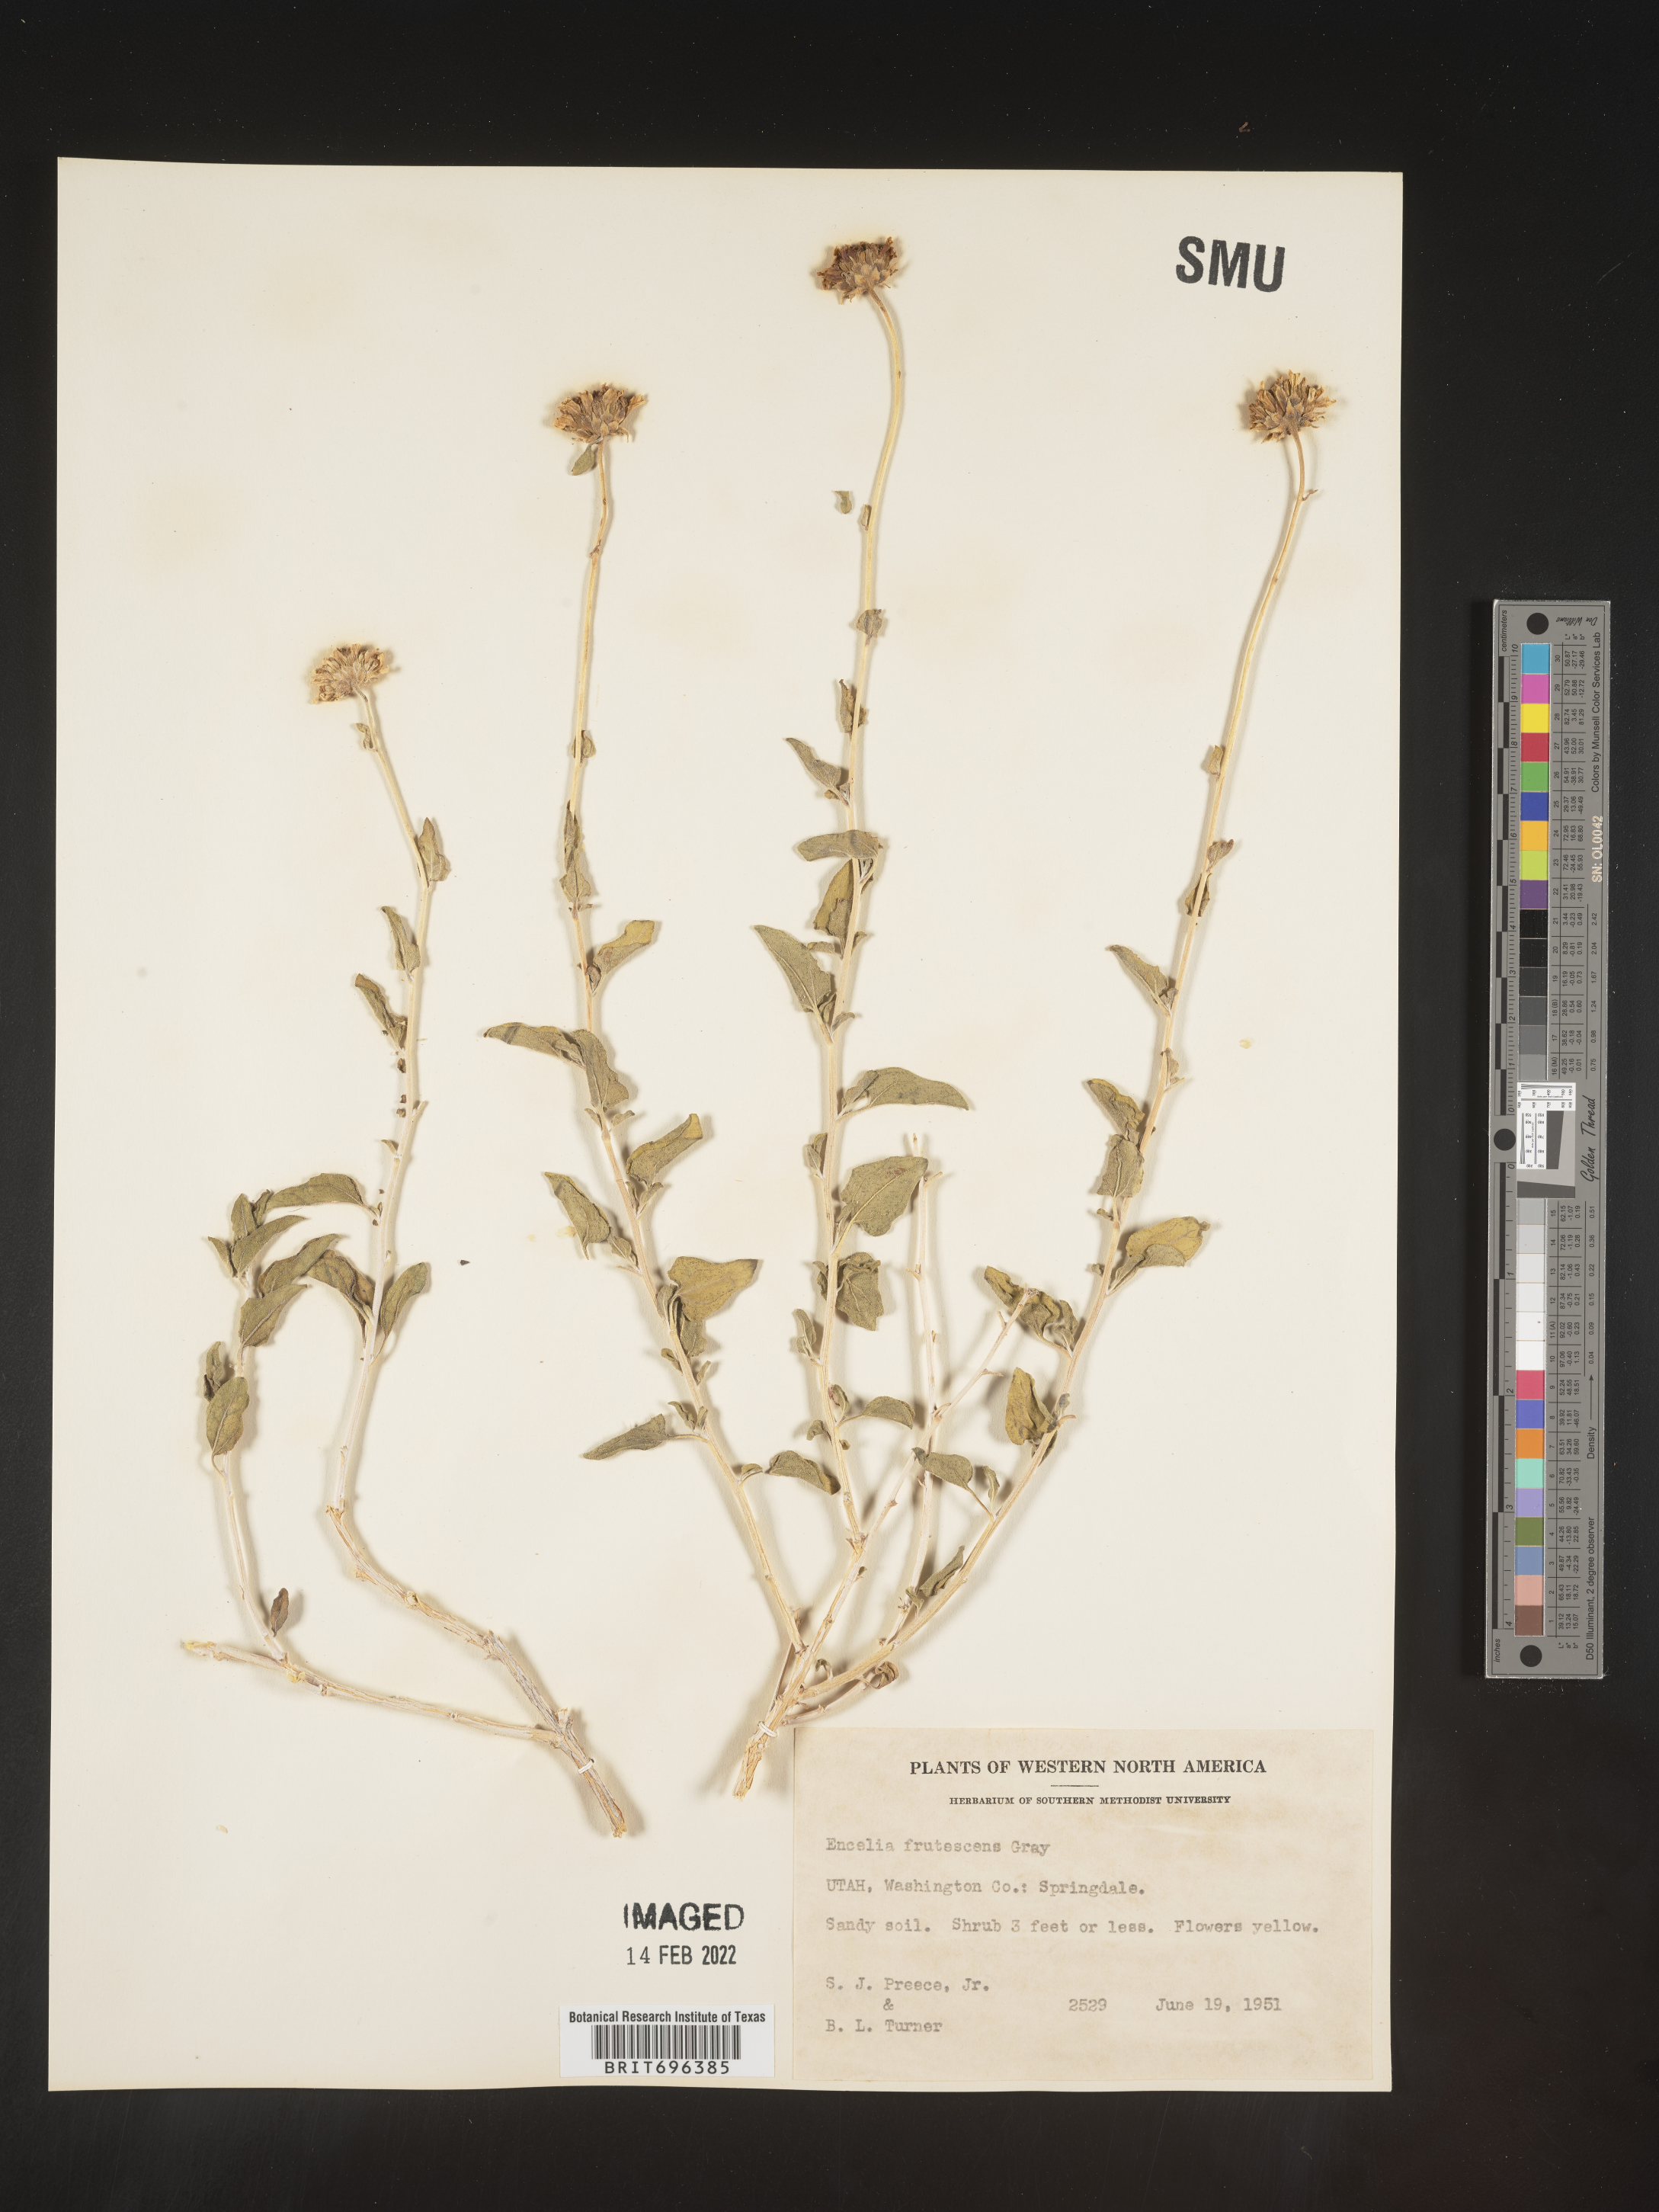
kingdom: Plantae
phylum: Tracheophyta
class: Magnoliopsida
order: Asterales
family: Asteraceae
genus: Encelia
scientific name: Encelia frutescens
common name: Bush encelia
